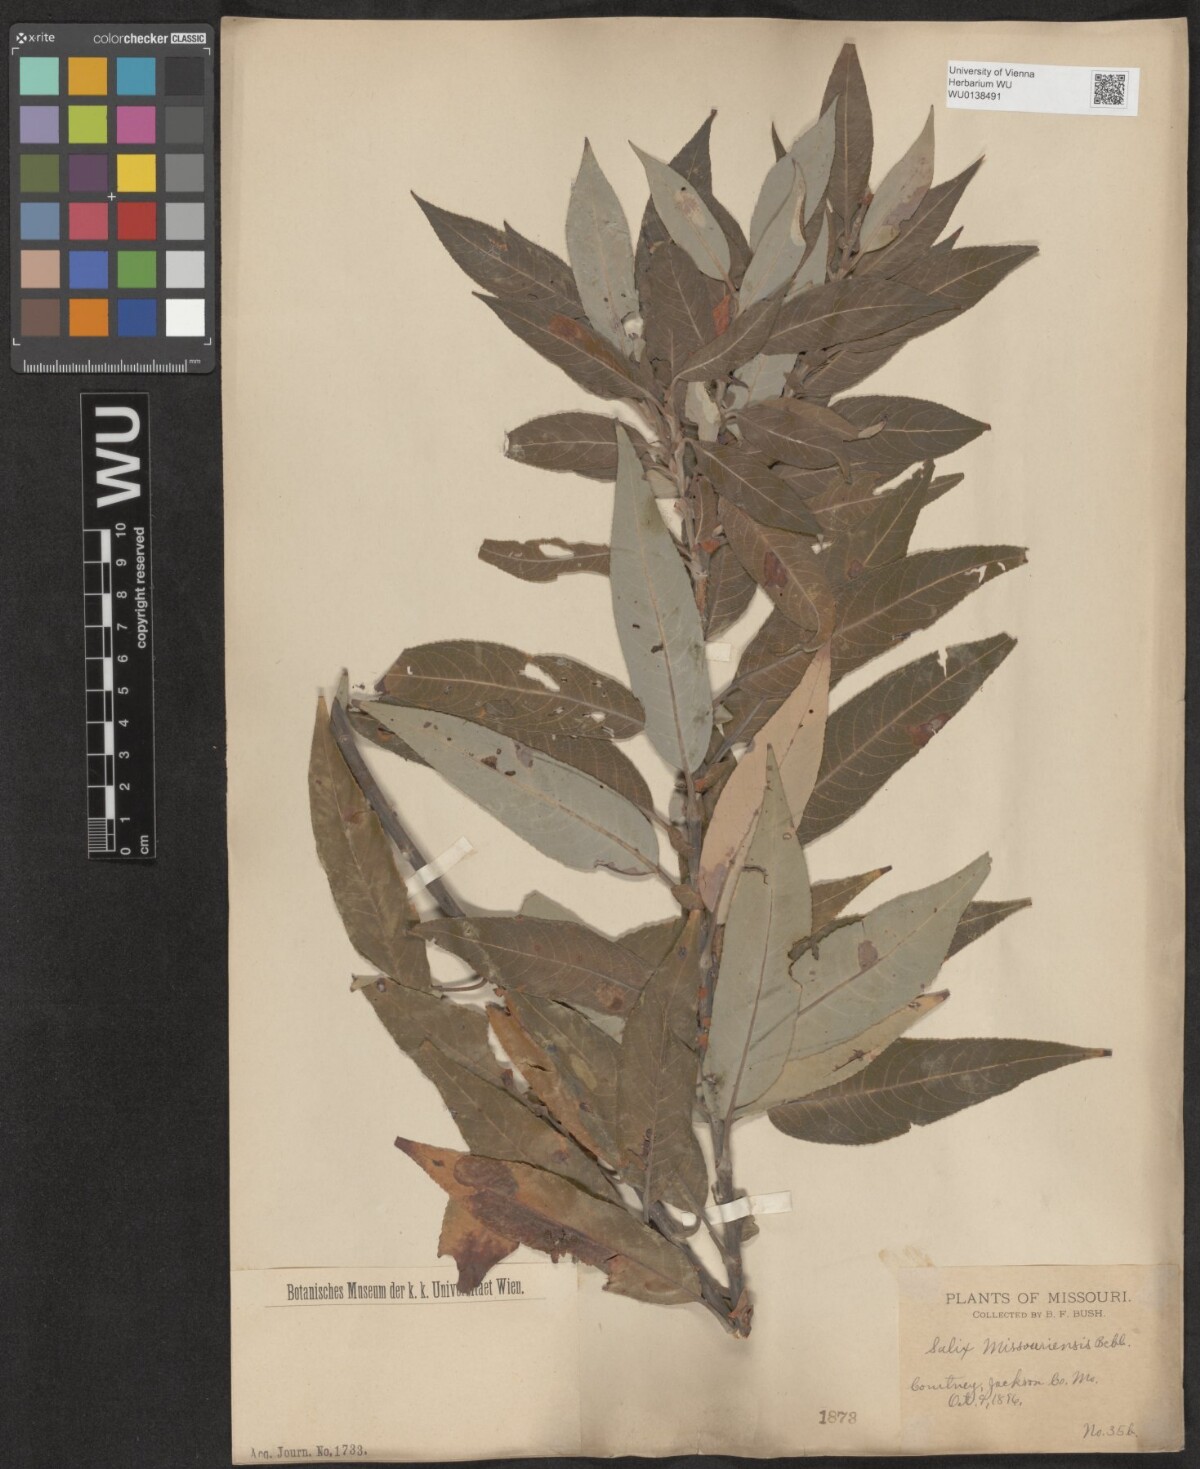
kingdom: Plantae
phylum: Tracheophyta
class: Magnoliopsida
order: Malpighiales
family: Salicaceae
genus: Salix
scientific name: Salix eriocephala
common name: Heart-leaved willow
